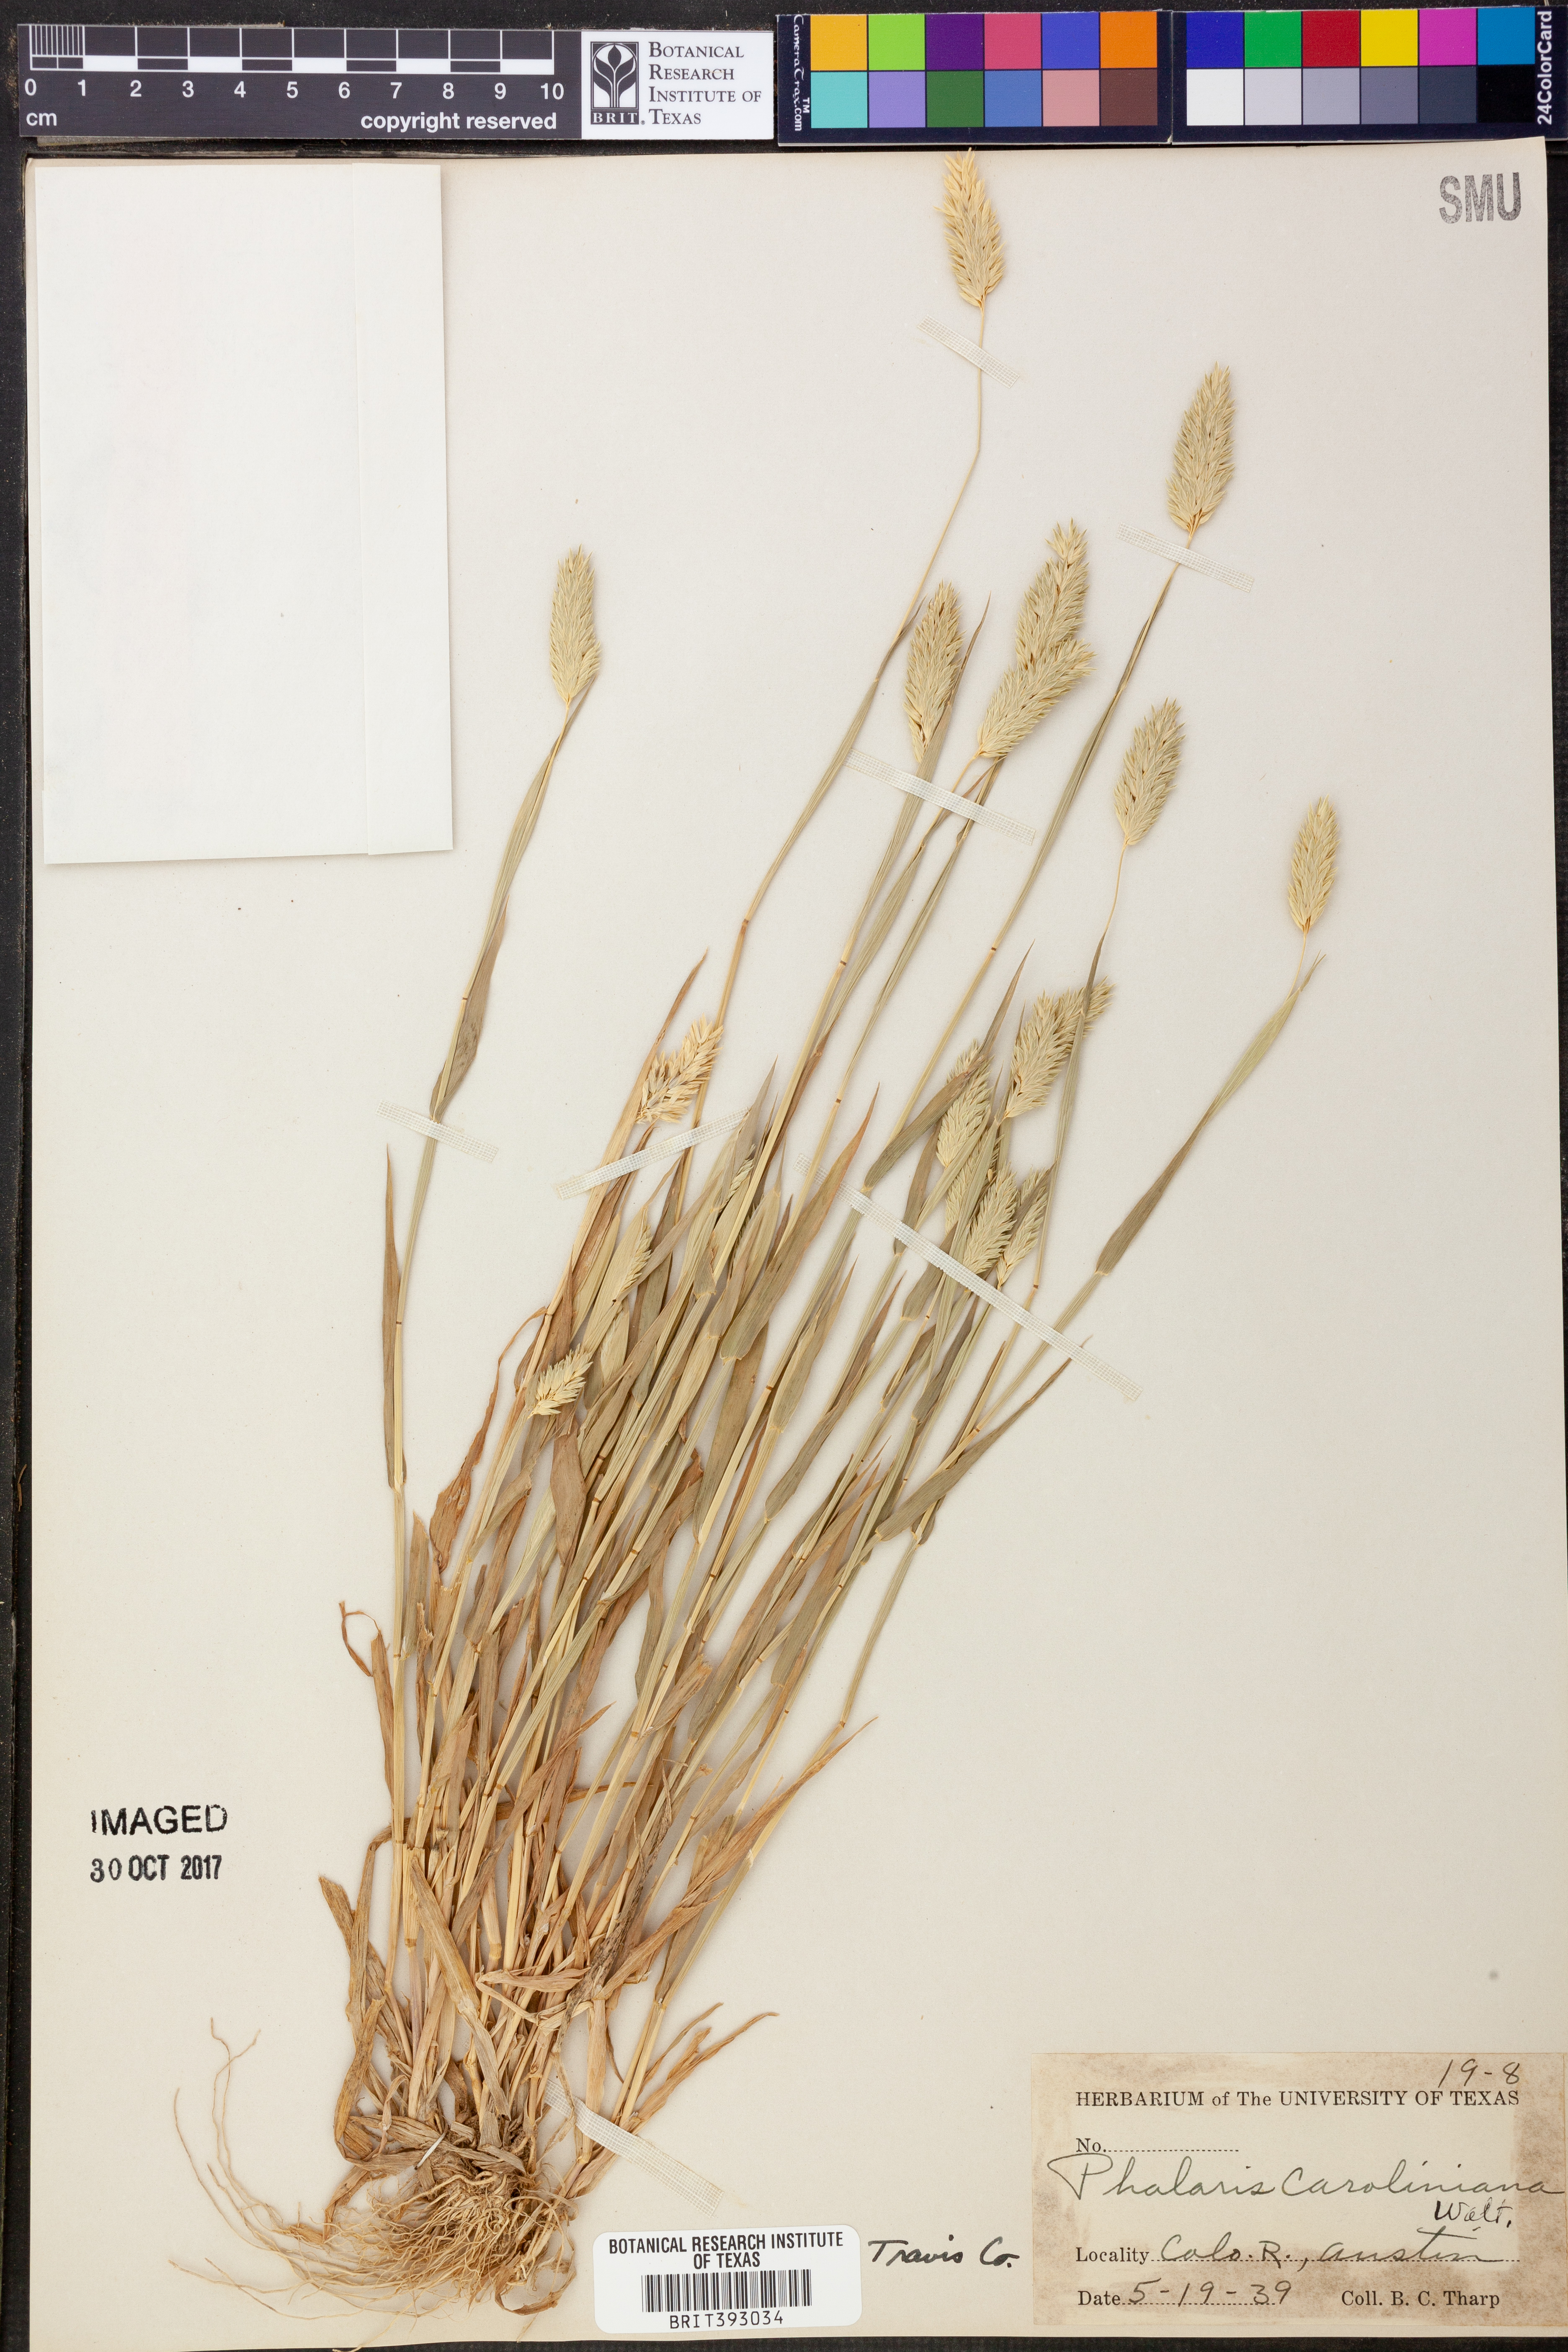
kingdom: Plantae
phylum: Tracheophyta
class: Liliopsida
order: Poales
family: Poaceae
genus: Phalaris
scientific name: Phalaris caroliniana
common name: May grass
